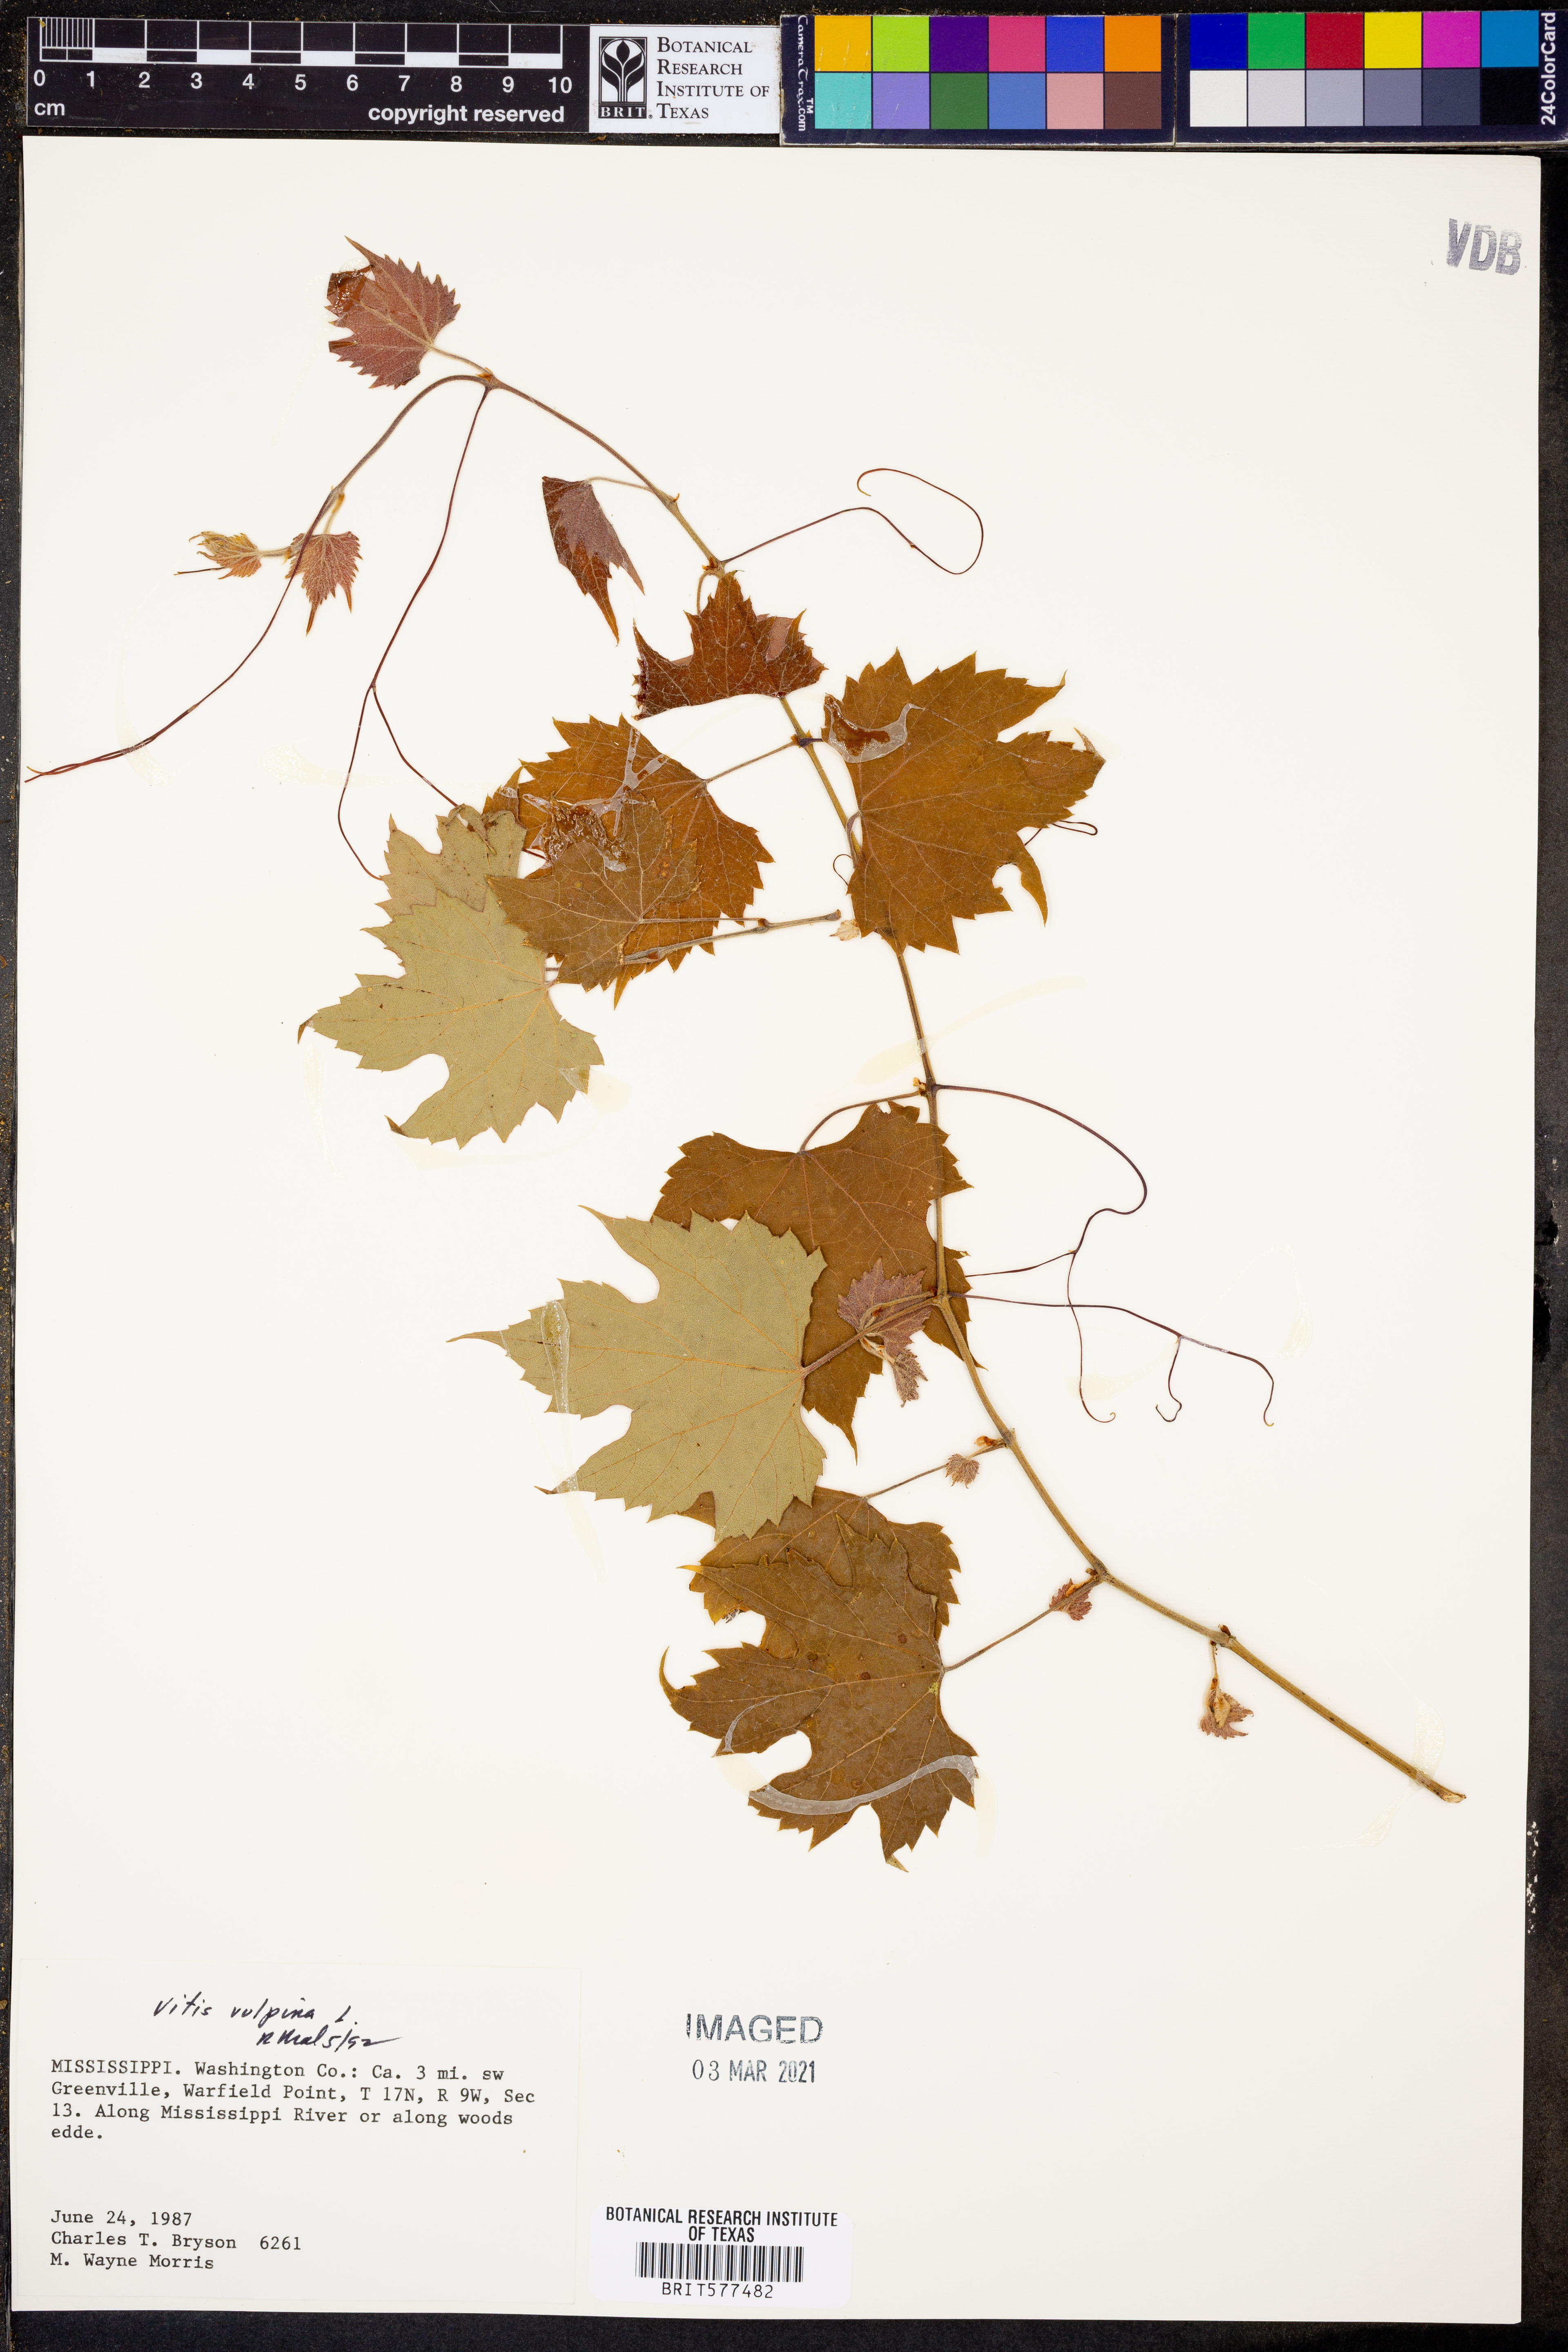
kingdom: Plantae
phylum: Tracheophyta
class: Magnoliopsida
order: Vitales
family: Vitaceae
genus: Vitis
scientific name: Vitis vulpina
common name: Frost grape
